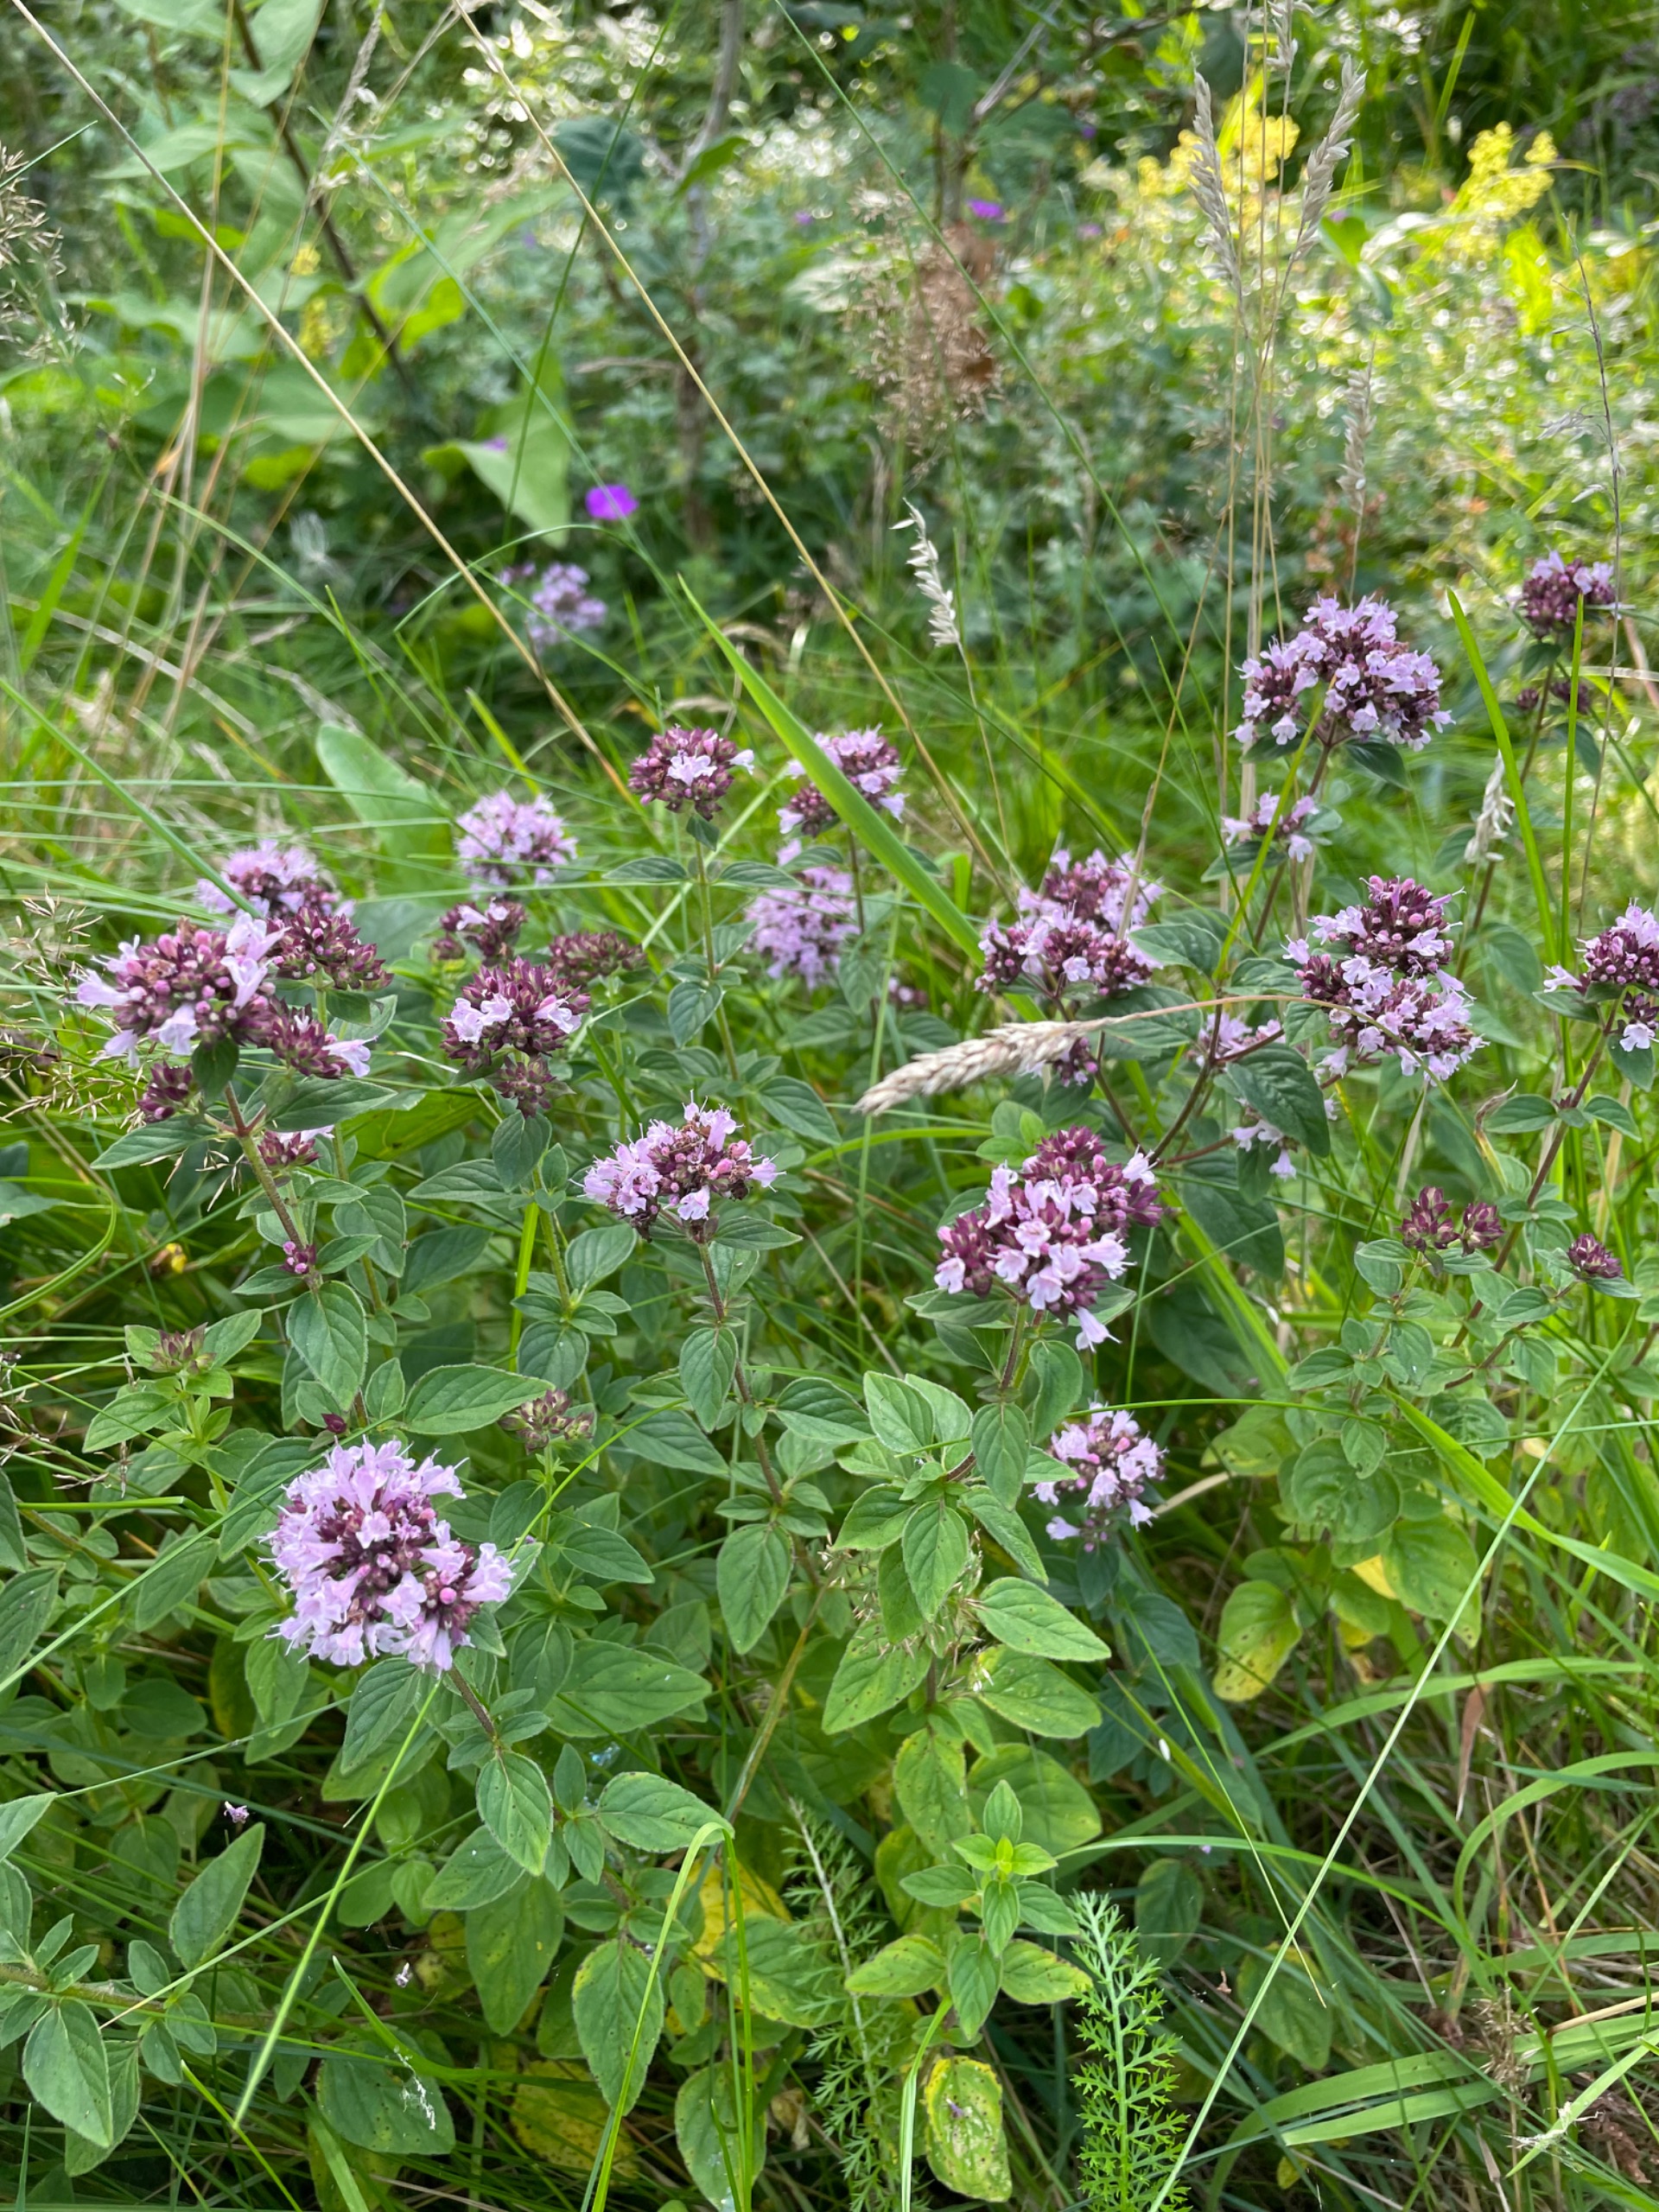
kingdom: Plantae
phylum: Tracheophyta
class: Magnoliopsida
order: Lamiales
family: Lamiaceae
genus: Origanum
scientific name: Origanum vulgare
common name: Merian
